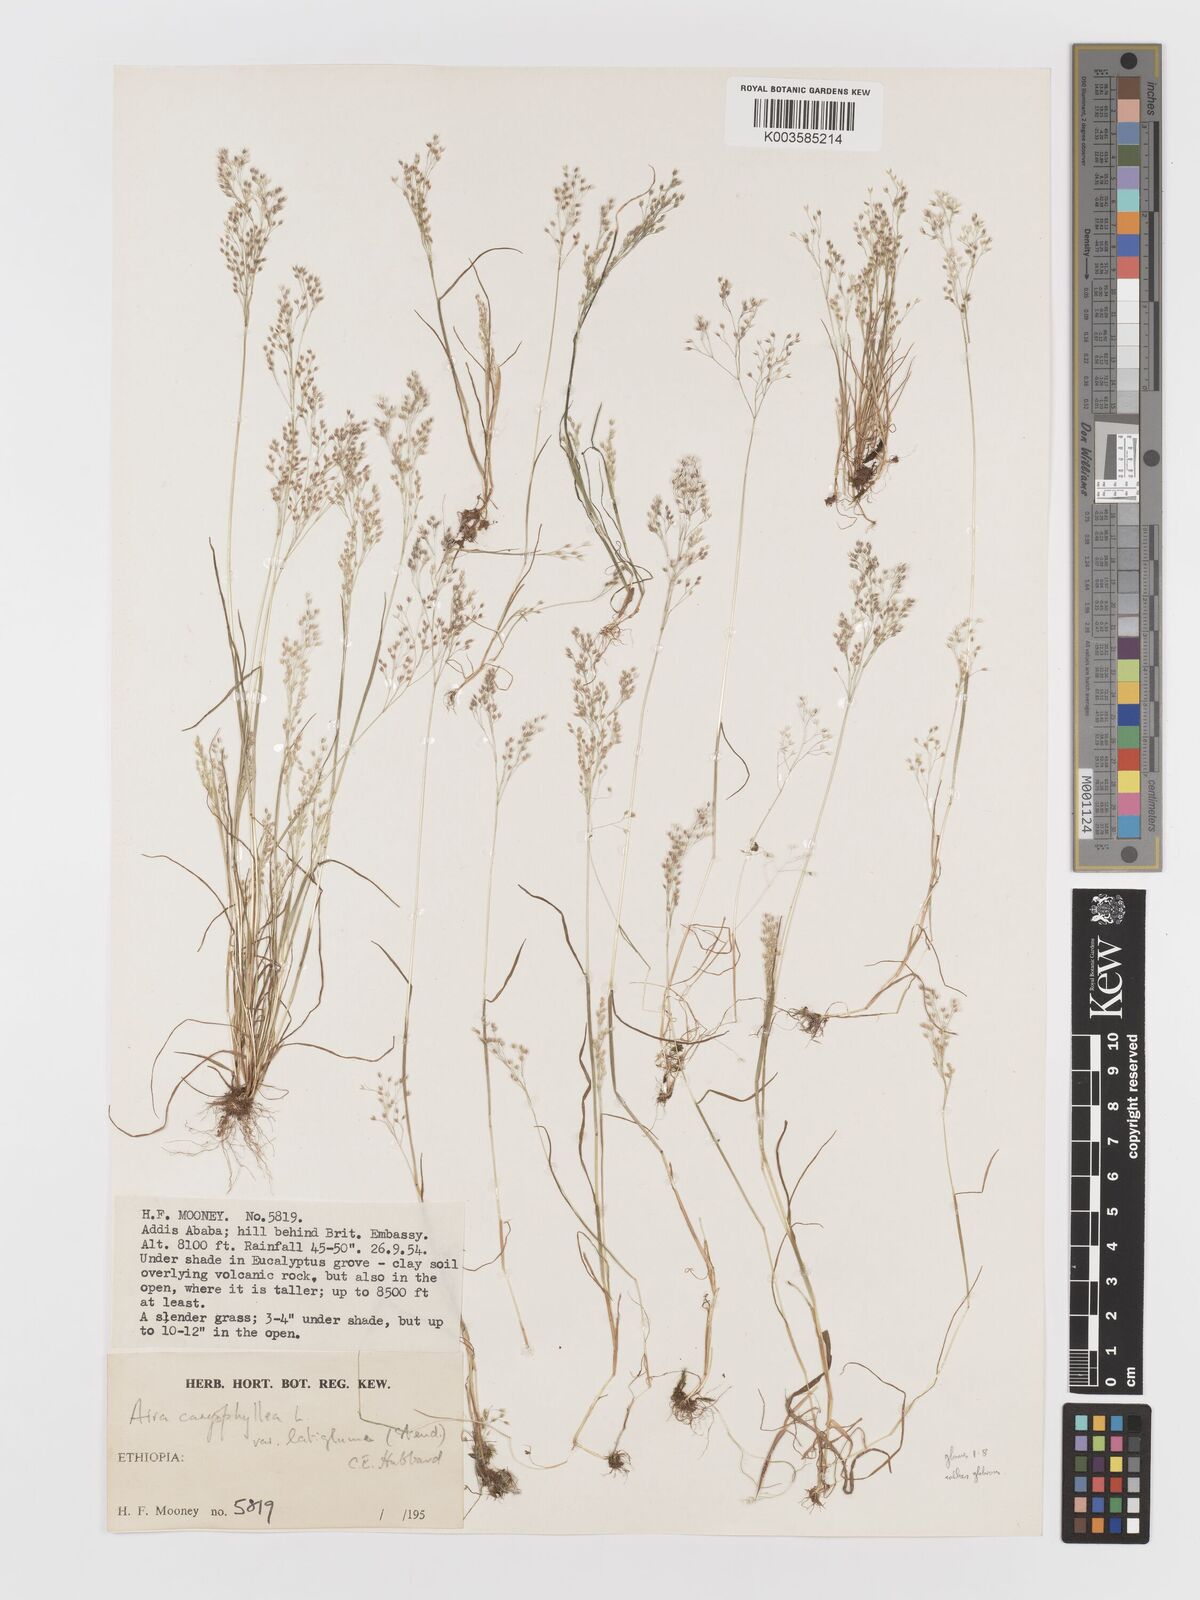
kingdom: Plantae
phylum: Tracheophyta
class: Liliopsida
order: Poales
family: Poaceae
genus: Aira
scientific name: Aira caryophyllea
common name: Silver hairgrass
